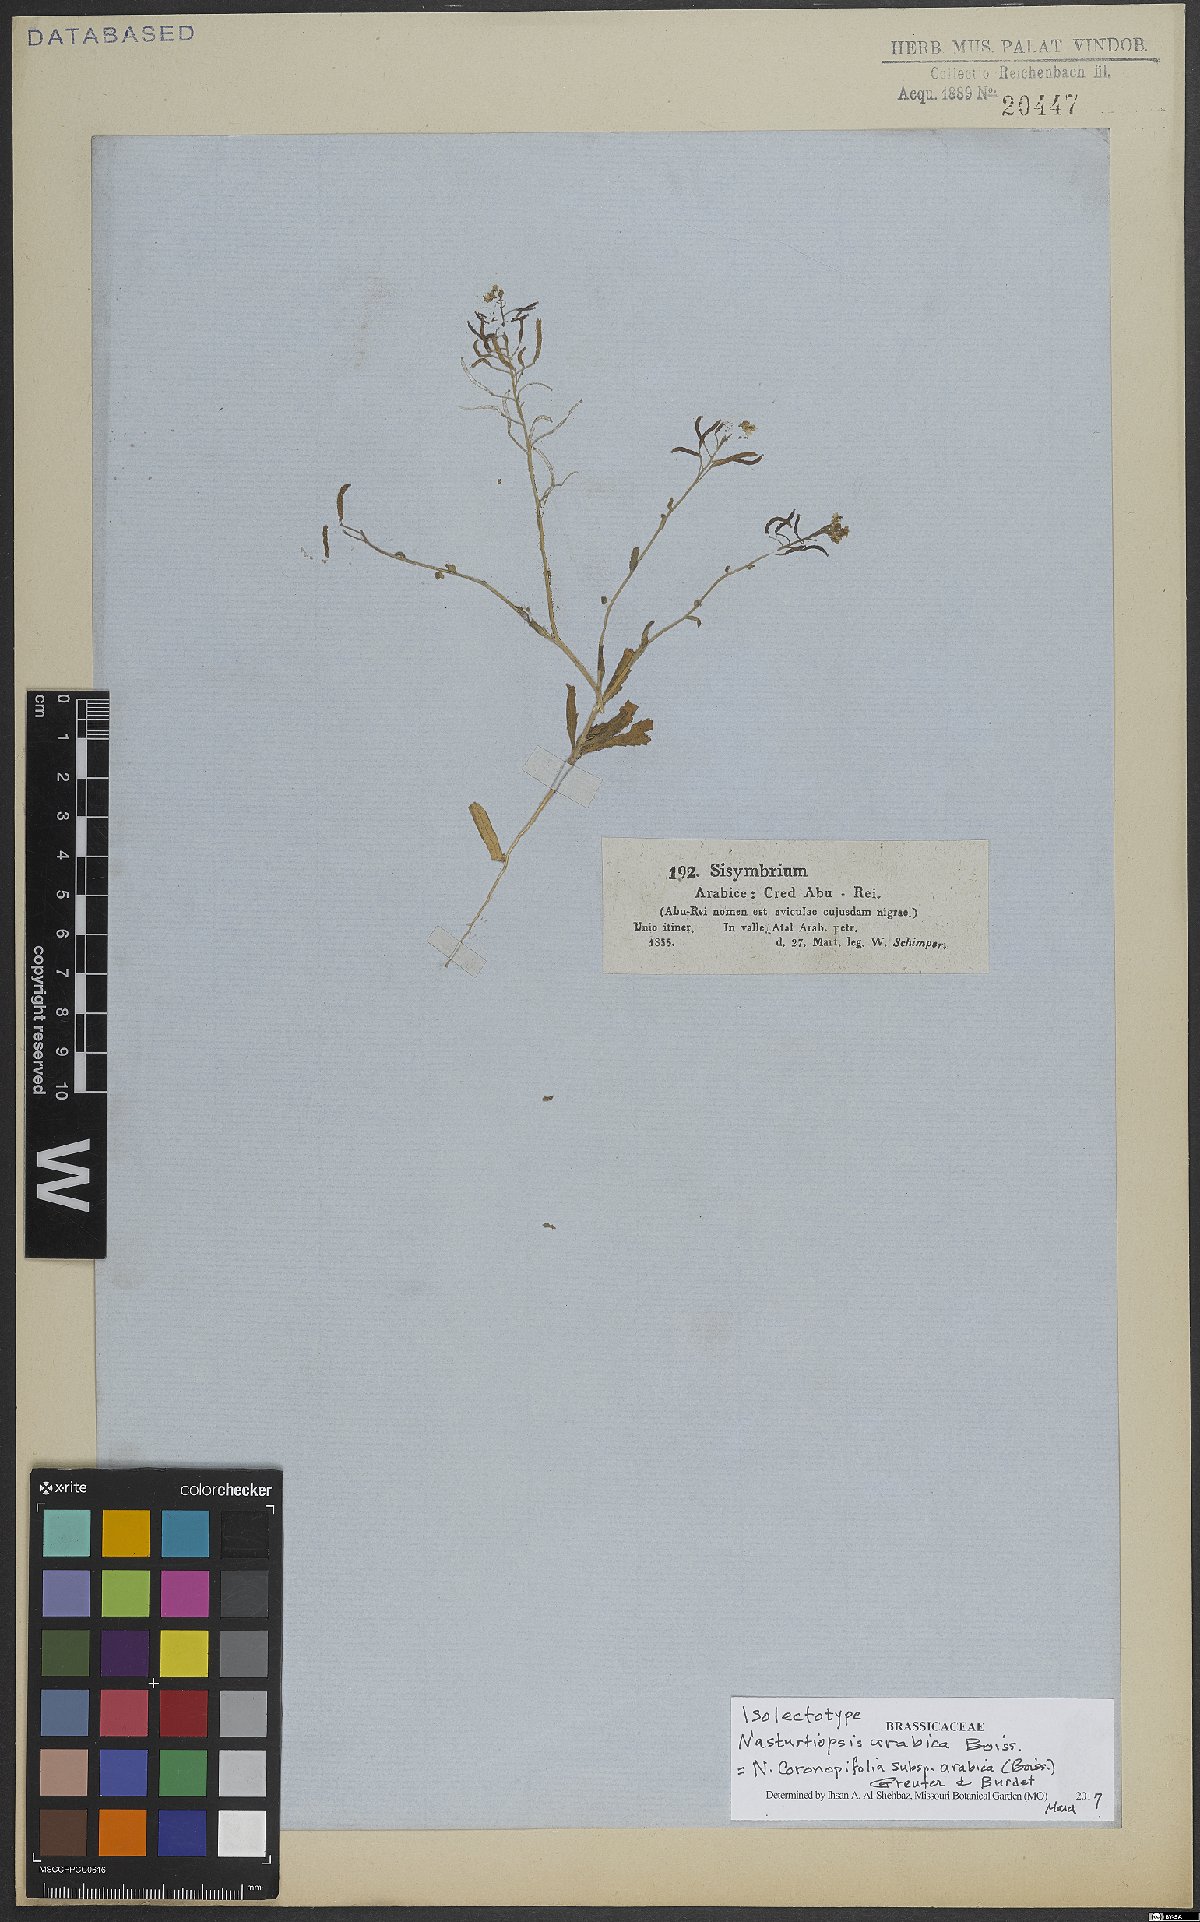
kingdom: Plantae
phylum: Tracheophyta
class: Magnoliopsida
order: Brassicales
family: Brassicaceae
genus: Nasturtiopsis
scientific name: Nasturtiopsis coronopifolia
